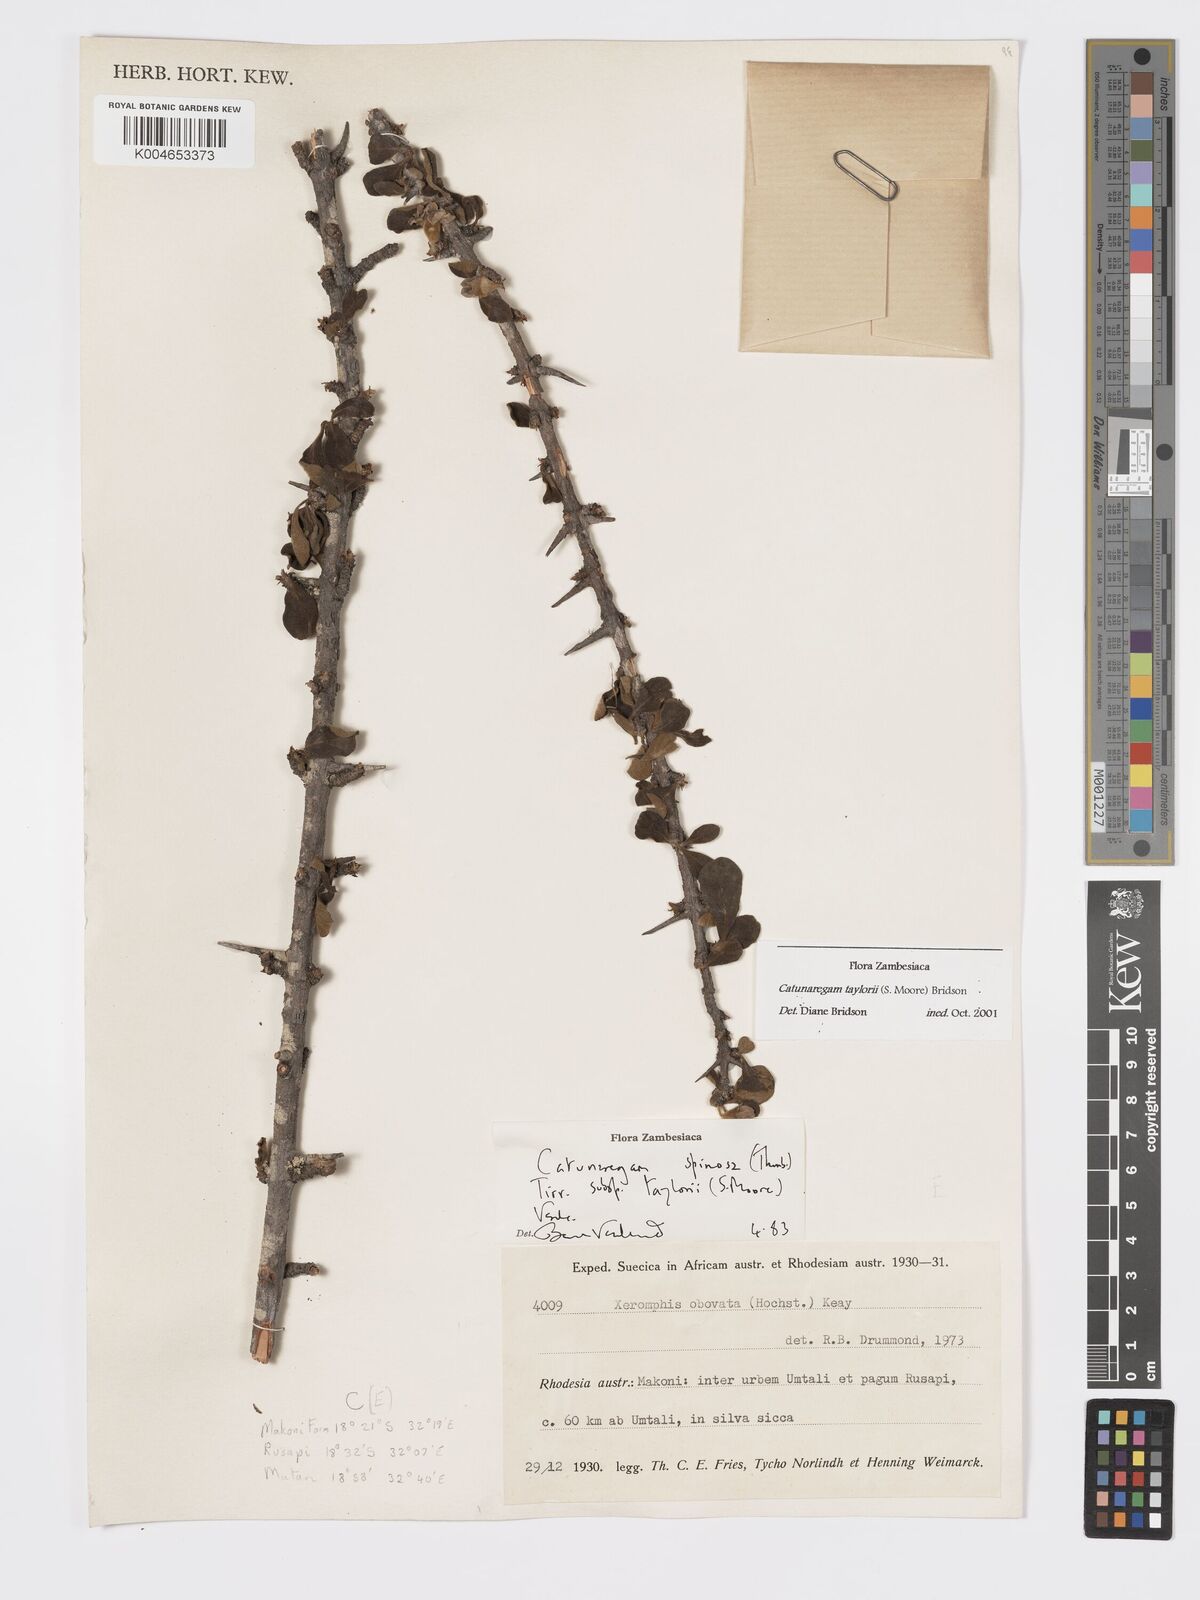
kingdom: Plantae
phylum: Tracheophyta
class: Magnoliopsida
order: Gentianales
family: Rubiaceae
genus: Catunaregam
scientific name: Catunaregam
